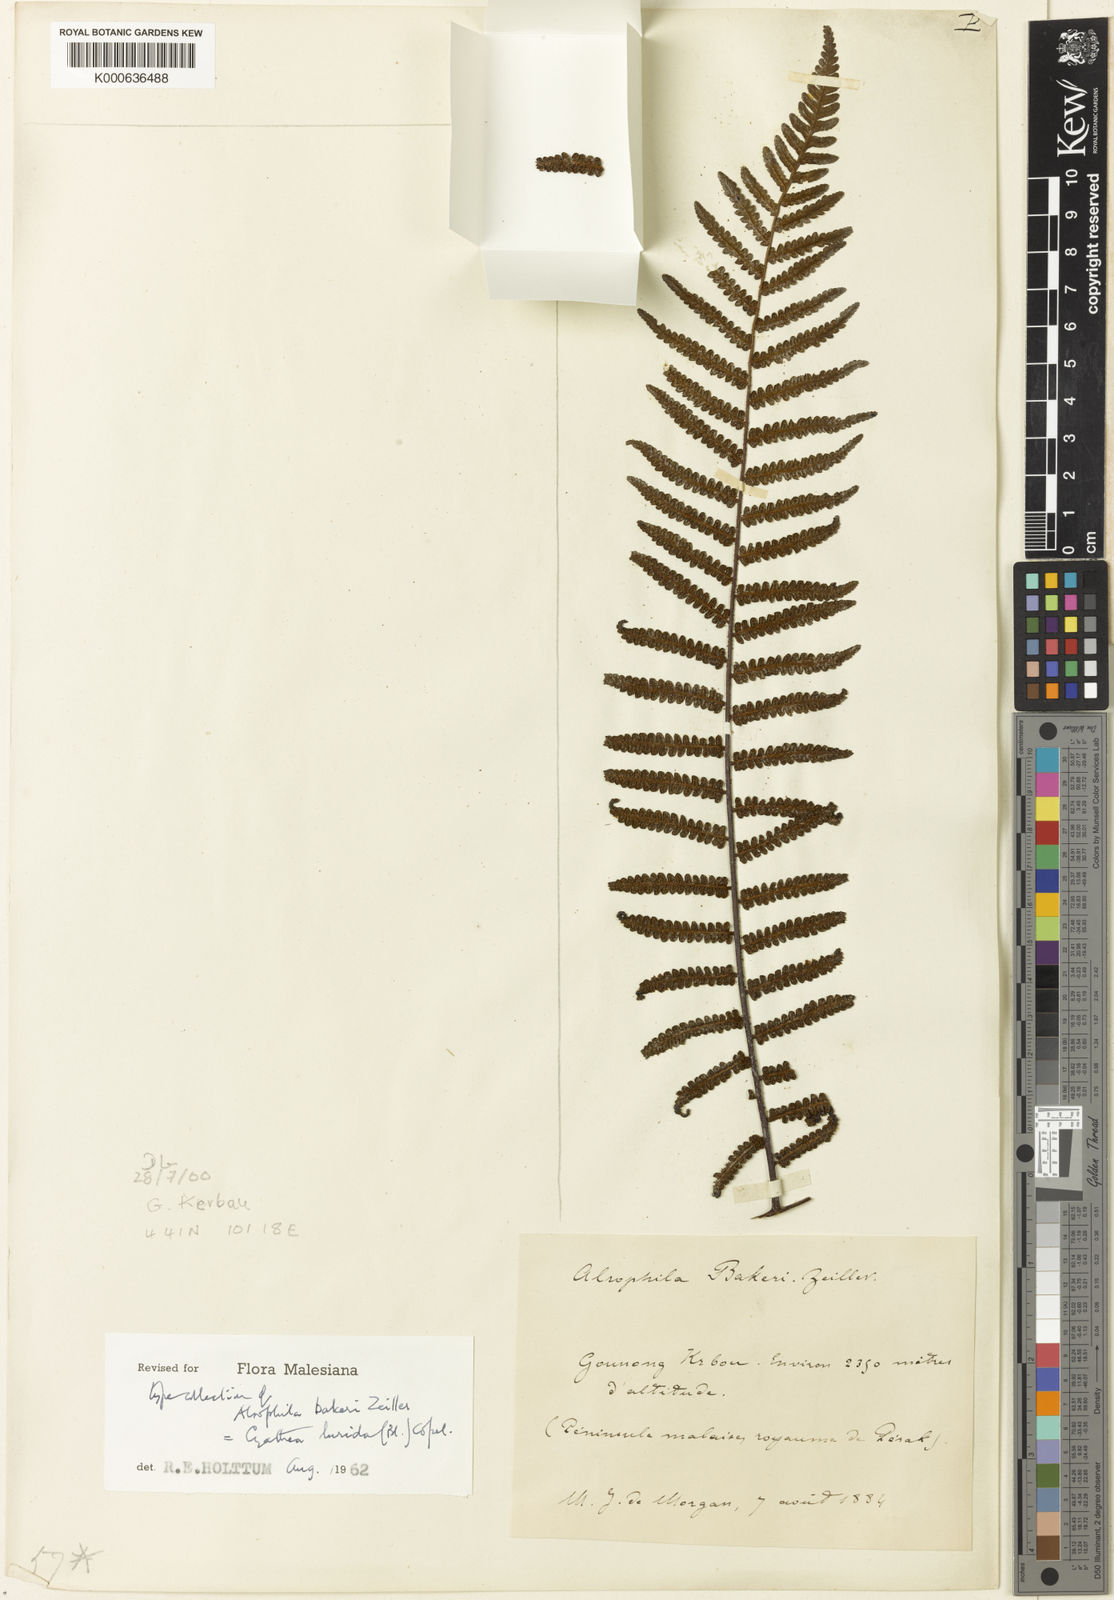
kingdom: Plantae
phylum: Tracheophyta
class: Polypodiopsida
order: Cyatheales
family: Cyatheaceae
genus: Gymnosphaera
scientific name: Gymnosphaera lurida
